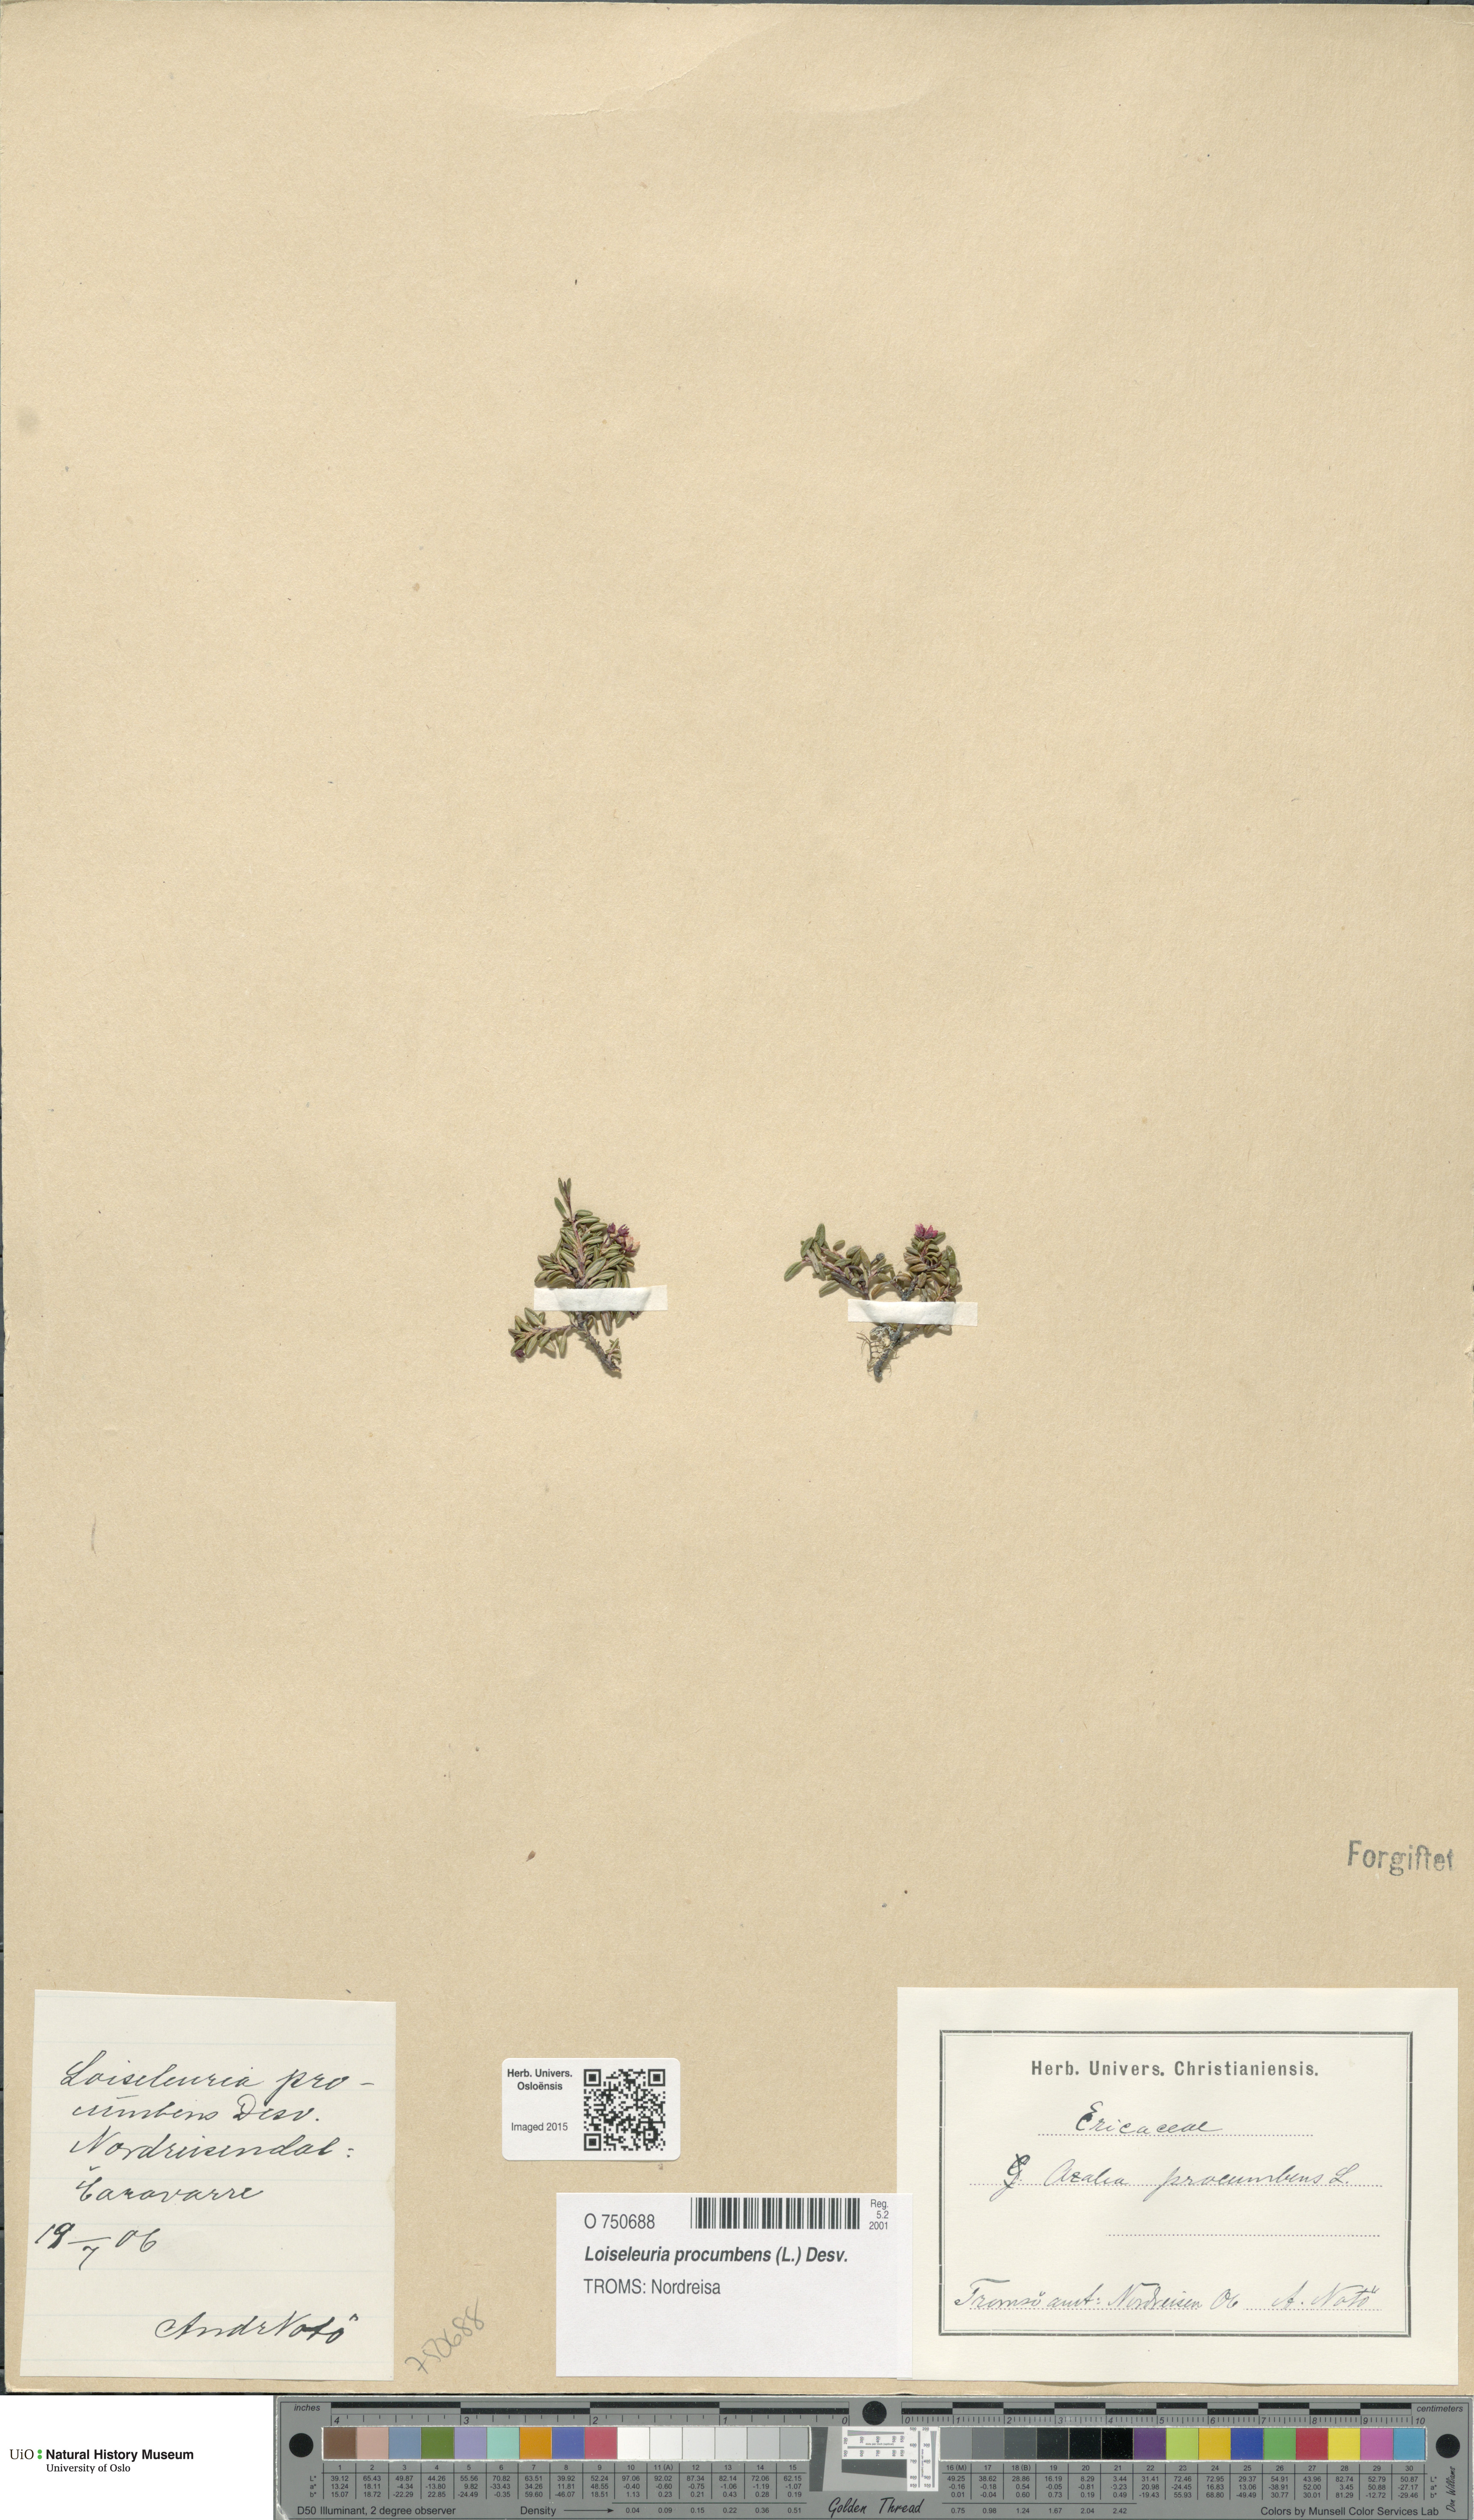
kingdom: Plantae
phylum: Tracheophyta
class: Magnoliopsida
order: Ericales
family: Ericaceae
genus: Kalmia
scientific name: Kalmia procumbens
